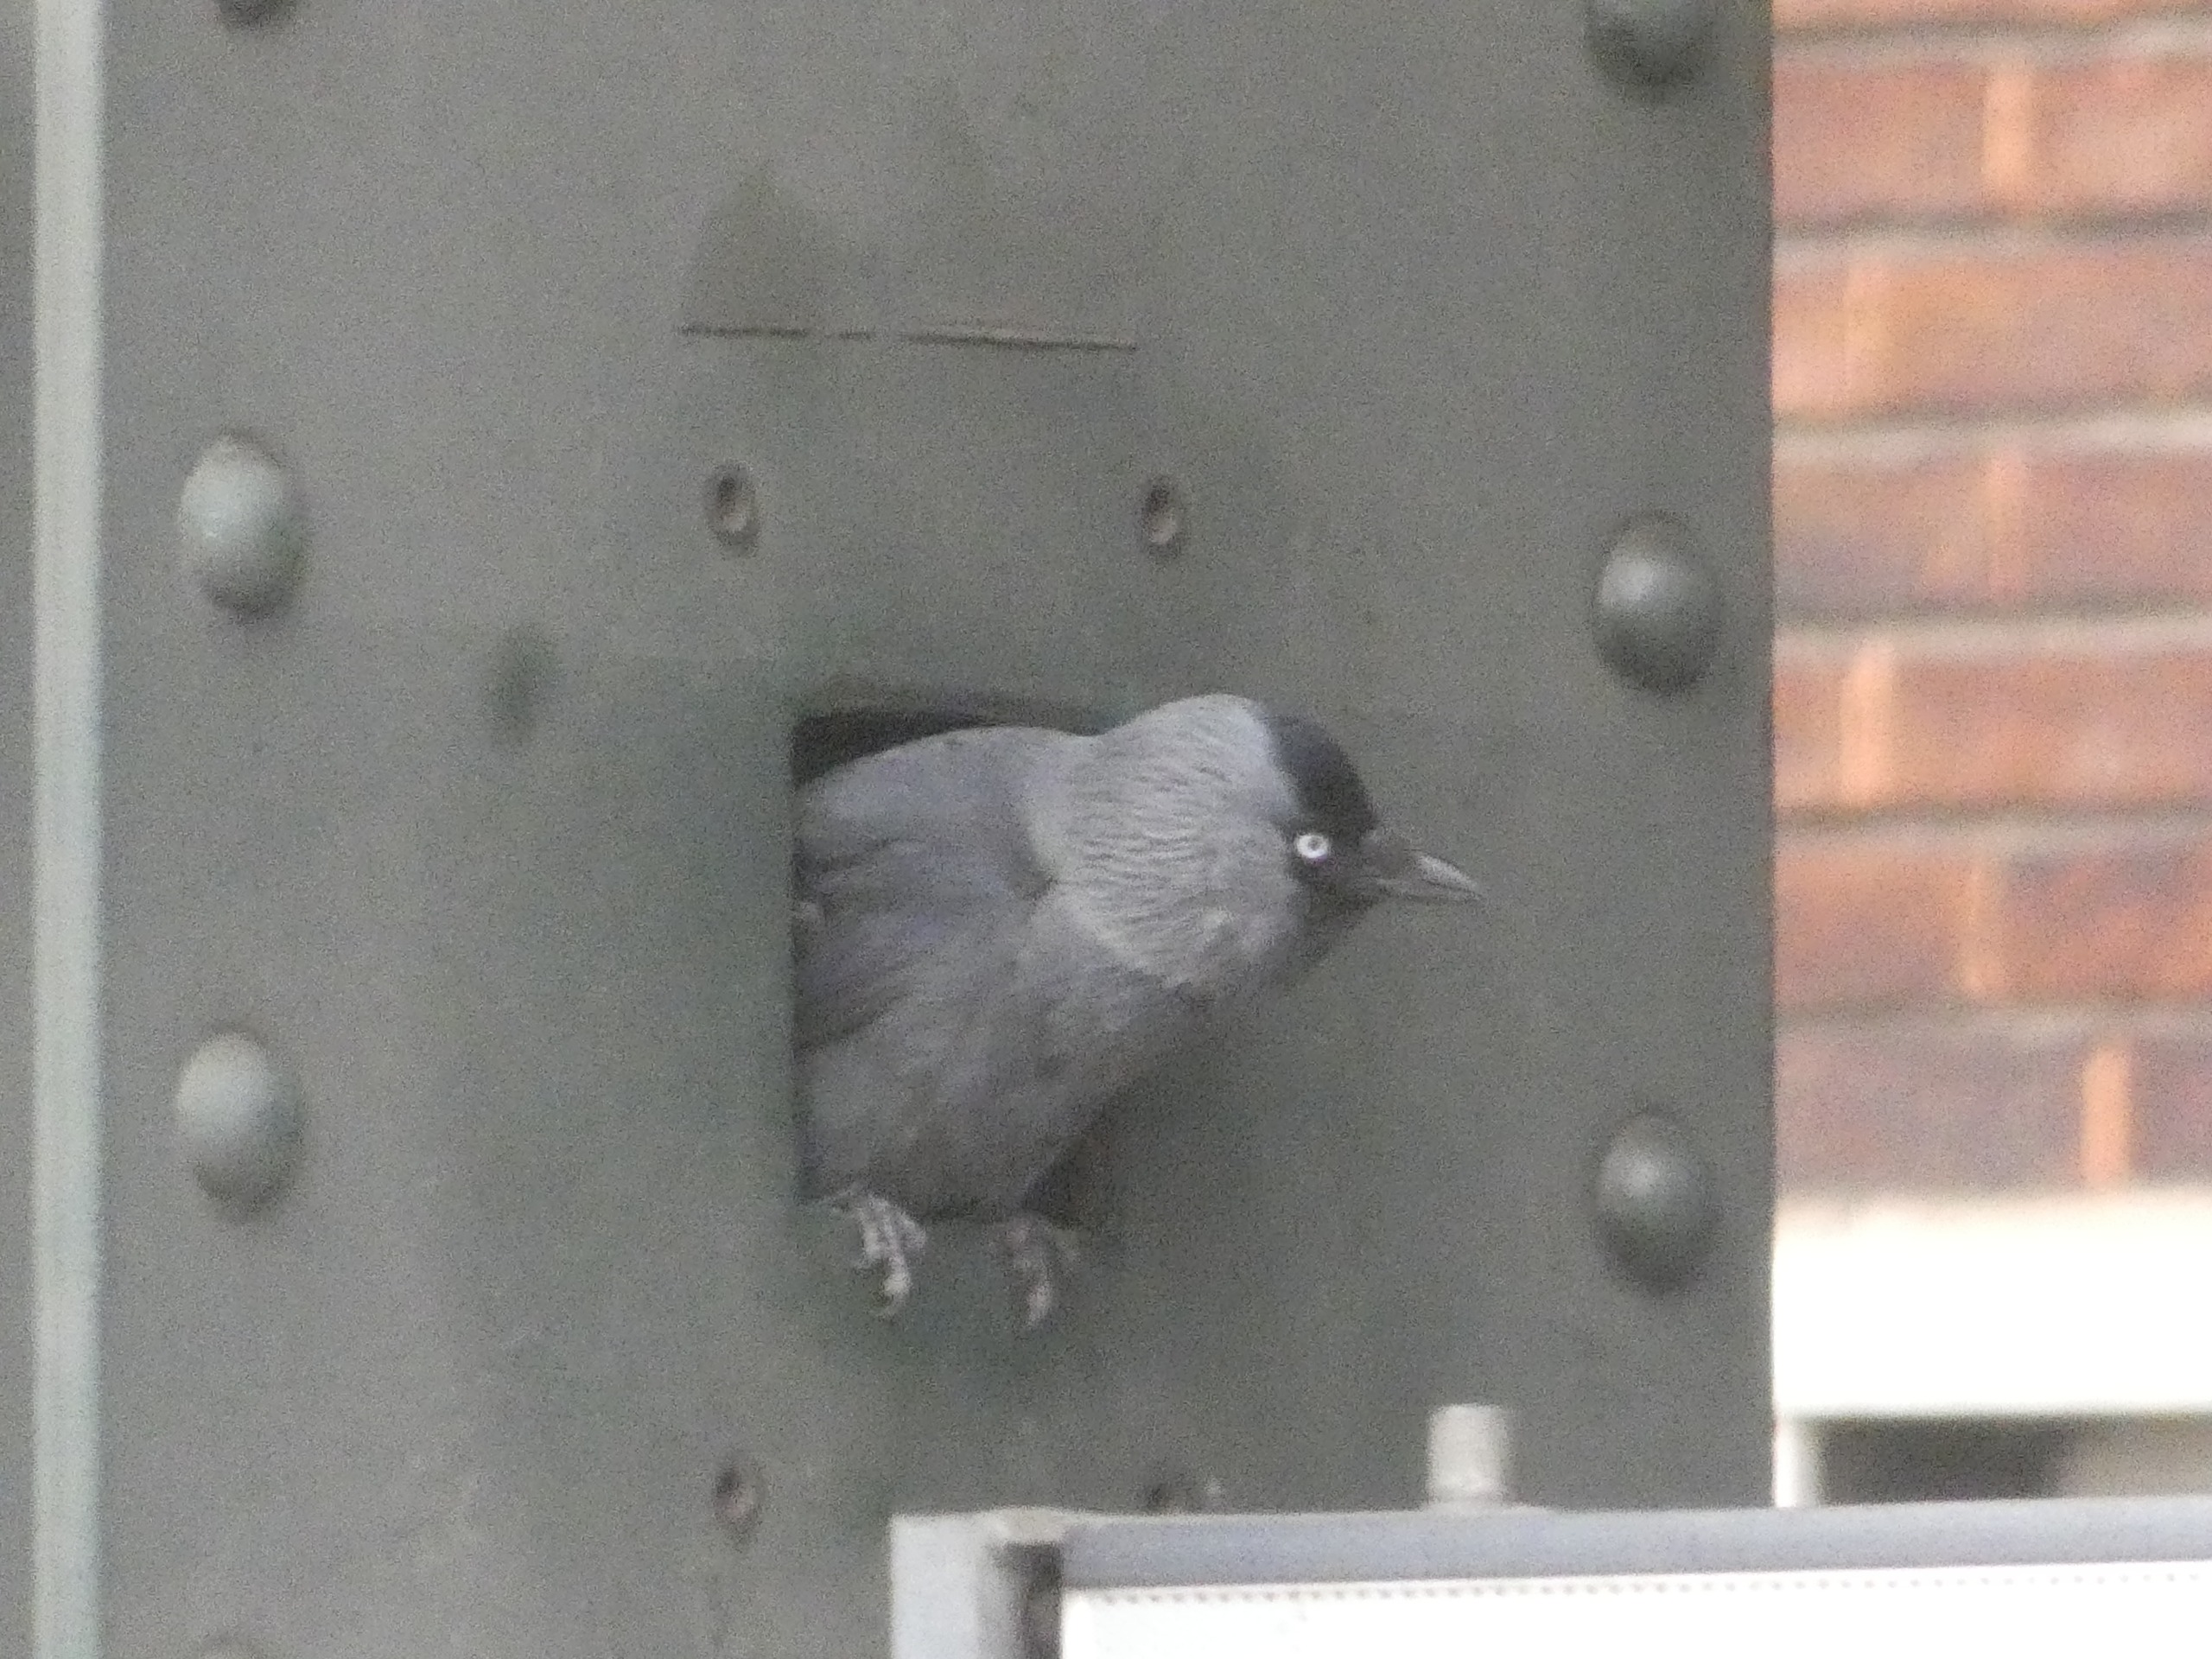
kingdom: Animalia
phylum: Chordata
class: Aves
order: Passeriformes
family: Corvidae
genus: Coloeus
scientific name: Coloeus monedula
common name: Allike
